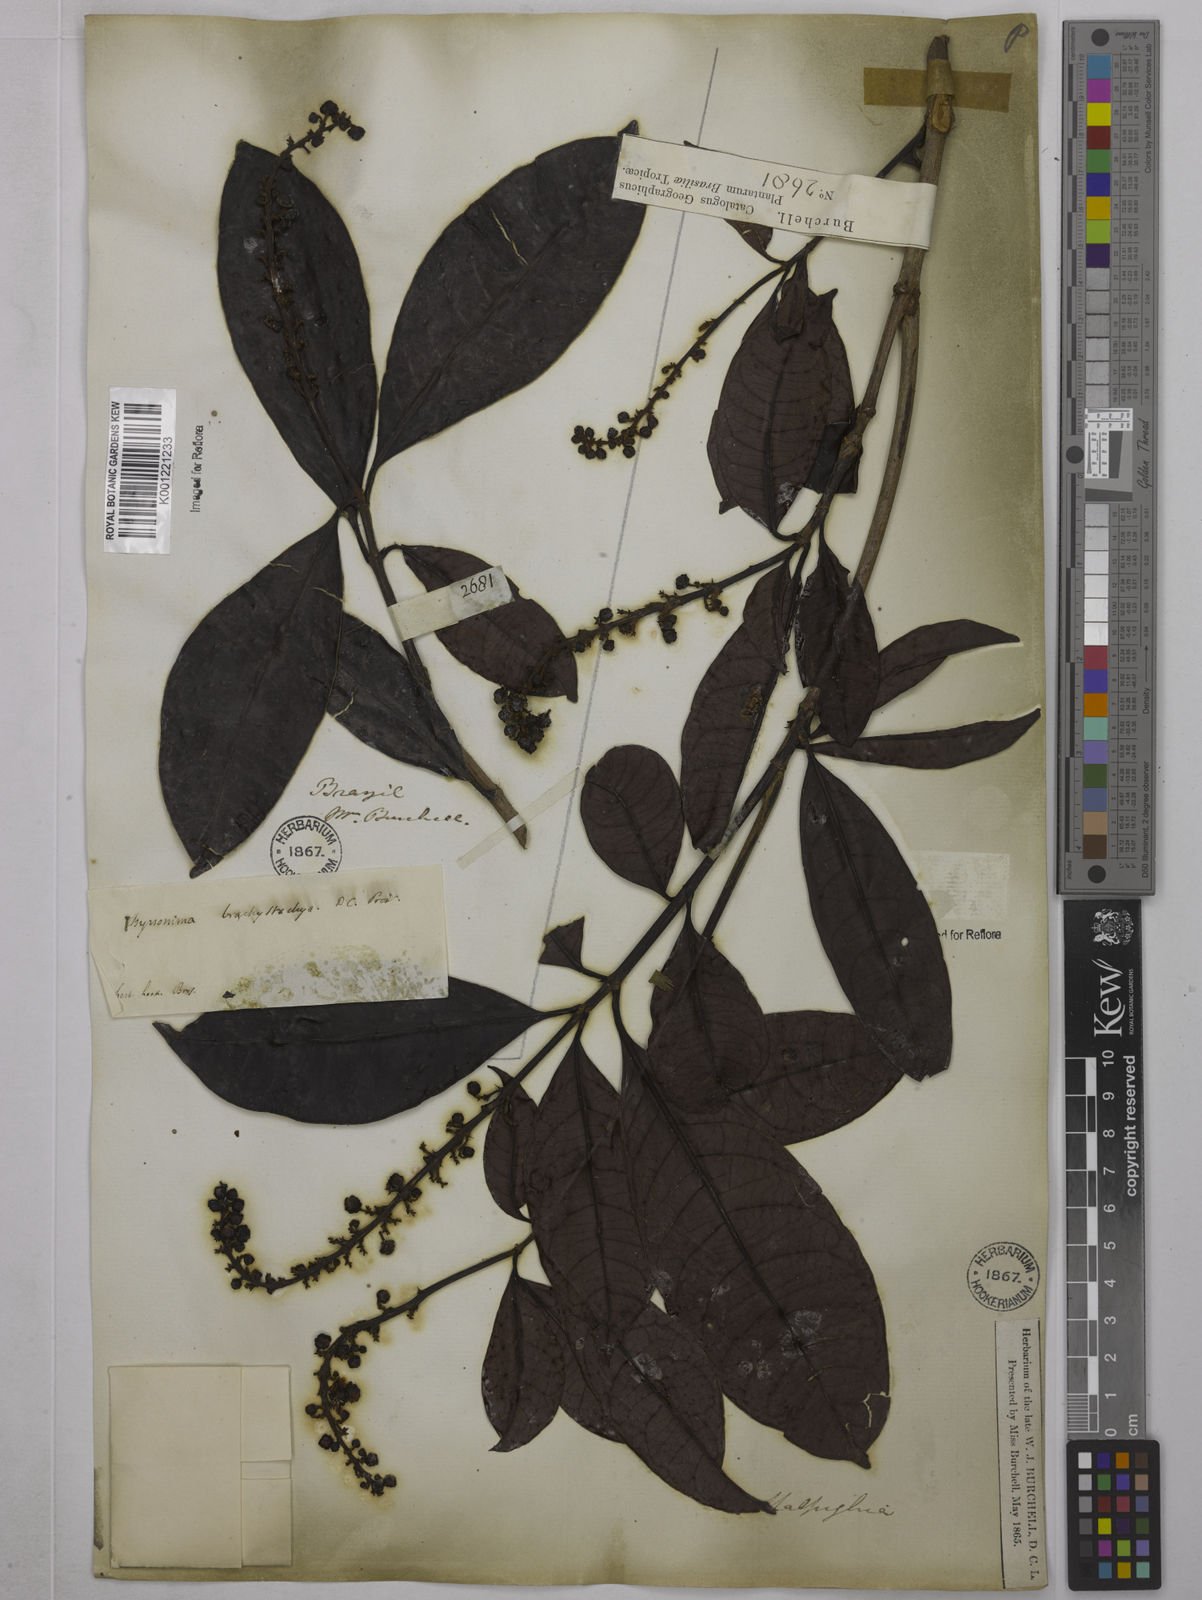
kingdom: Plantae
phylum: Tracheophyta
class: Magnoliopsida
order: Malpighiales
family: Malpighiaceae
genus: Byrsonima
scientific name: Byrsonima brachystachya
